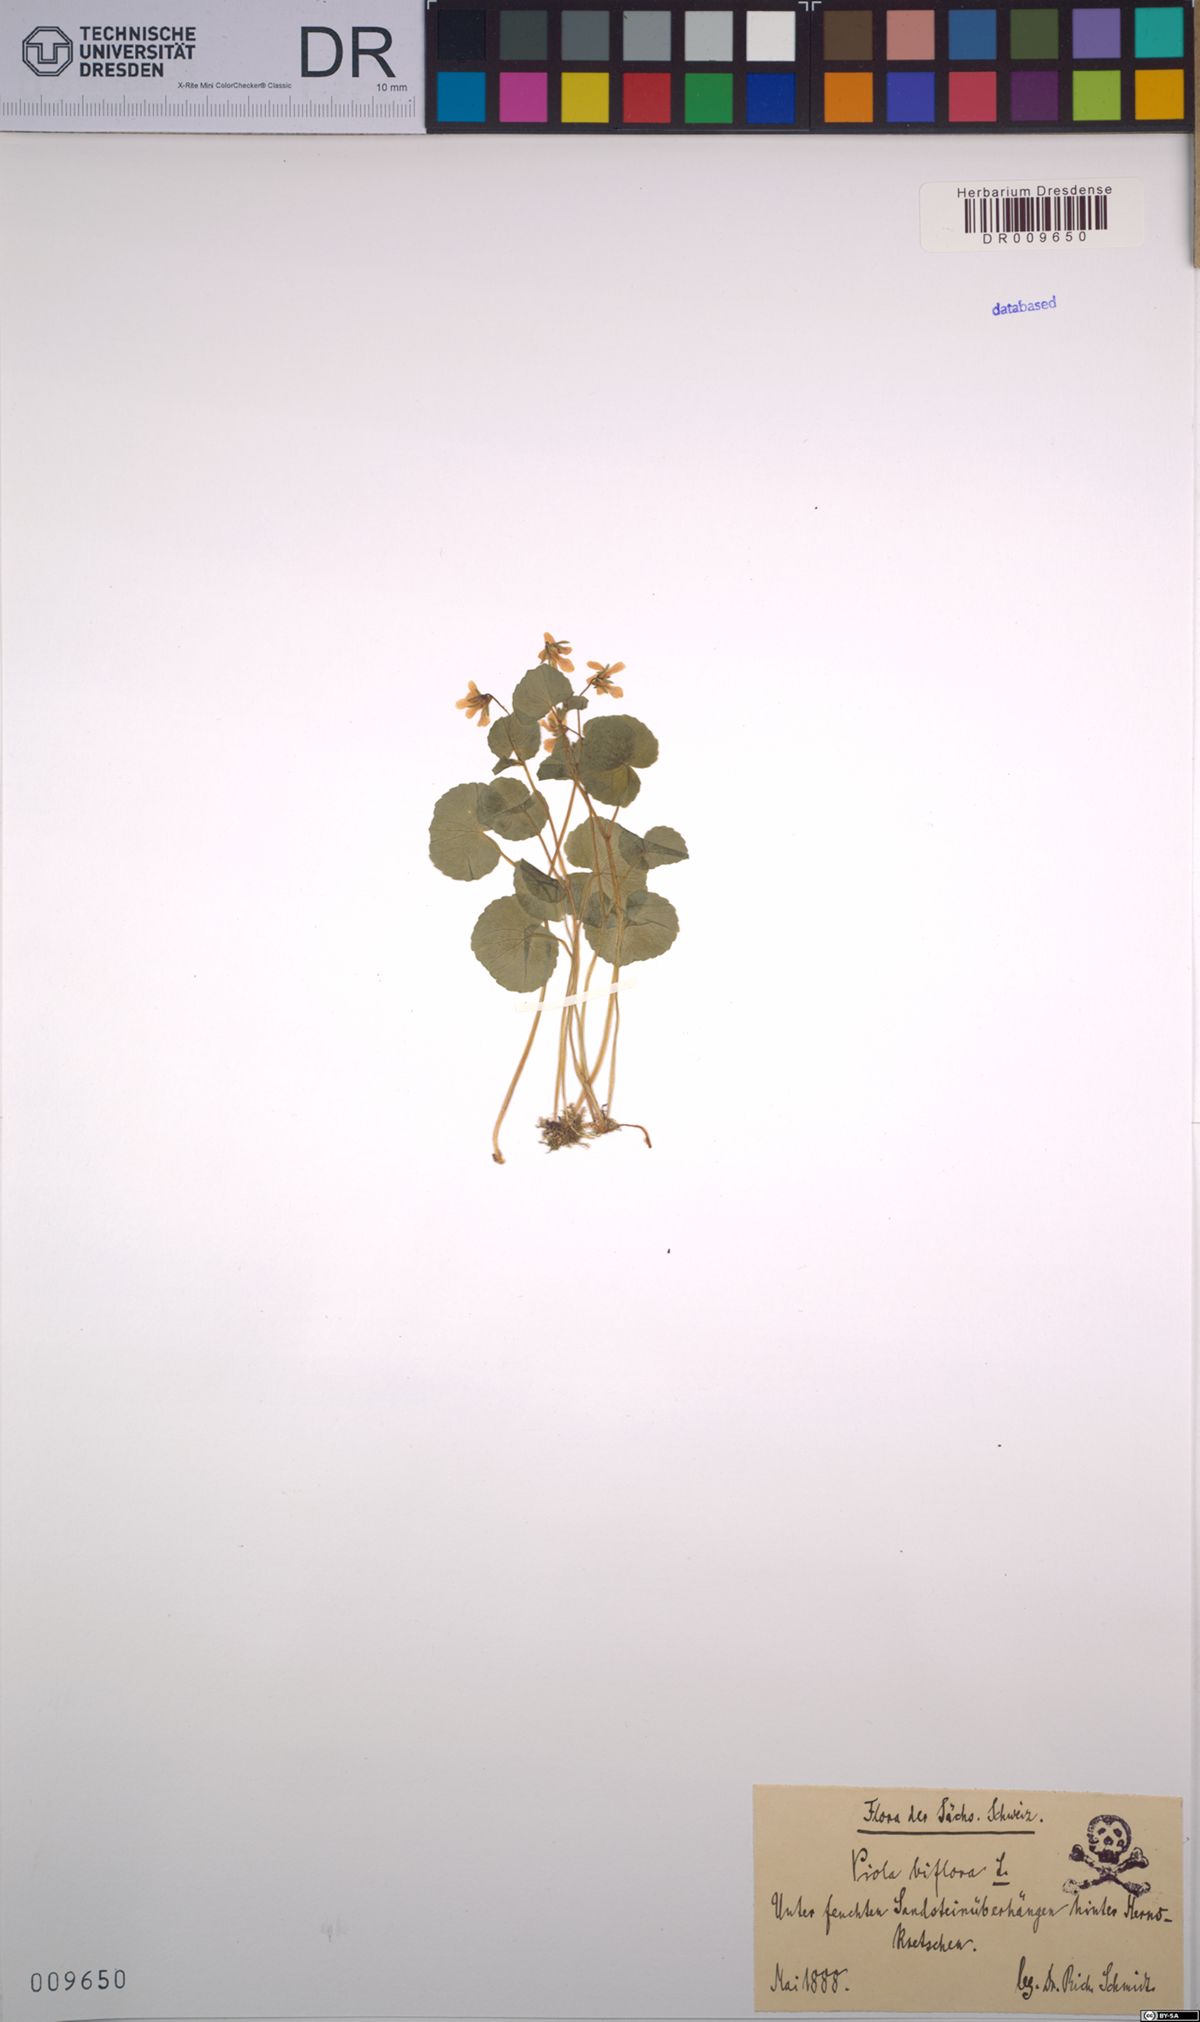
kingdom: Plantae
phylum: Tracheophyta
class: Magnoliopsida
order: Malpighiales
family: Violaceae
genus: Viola
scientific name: Viola biflora
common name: Alpine yellow violet
